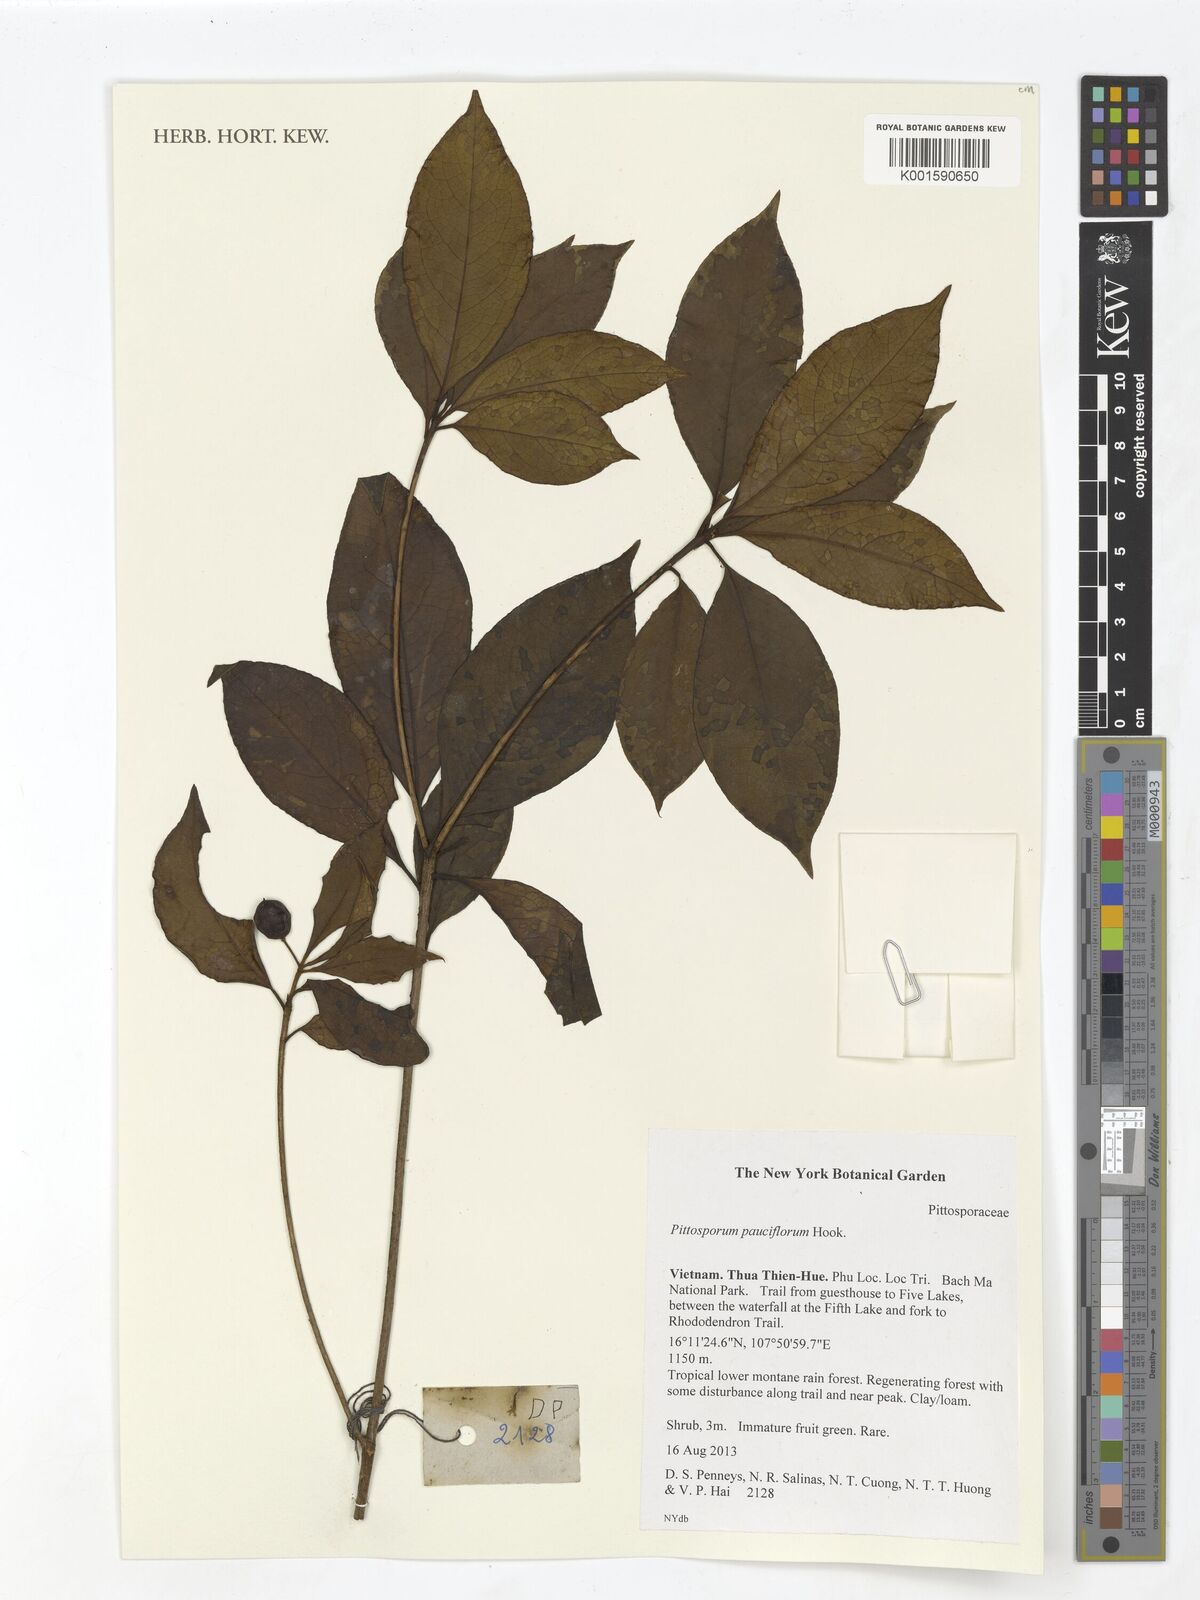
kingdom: Plantae
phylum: Tracheophyta
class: Magnoliopsida
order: Apiales
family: Pittosporaceae
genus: Pittosporum
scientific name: Pittosporum pauciflorum
